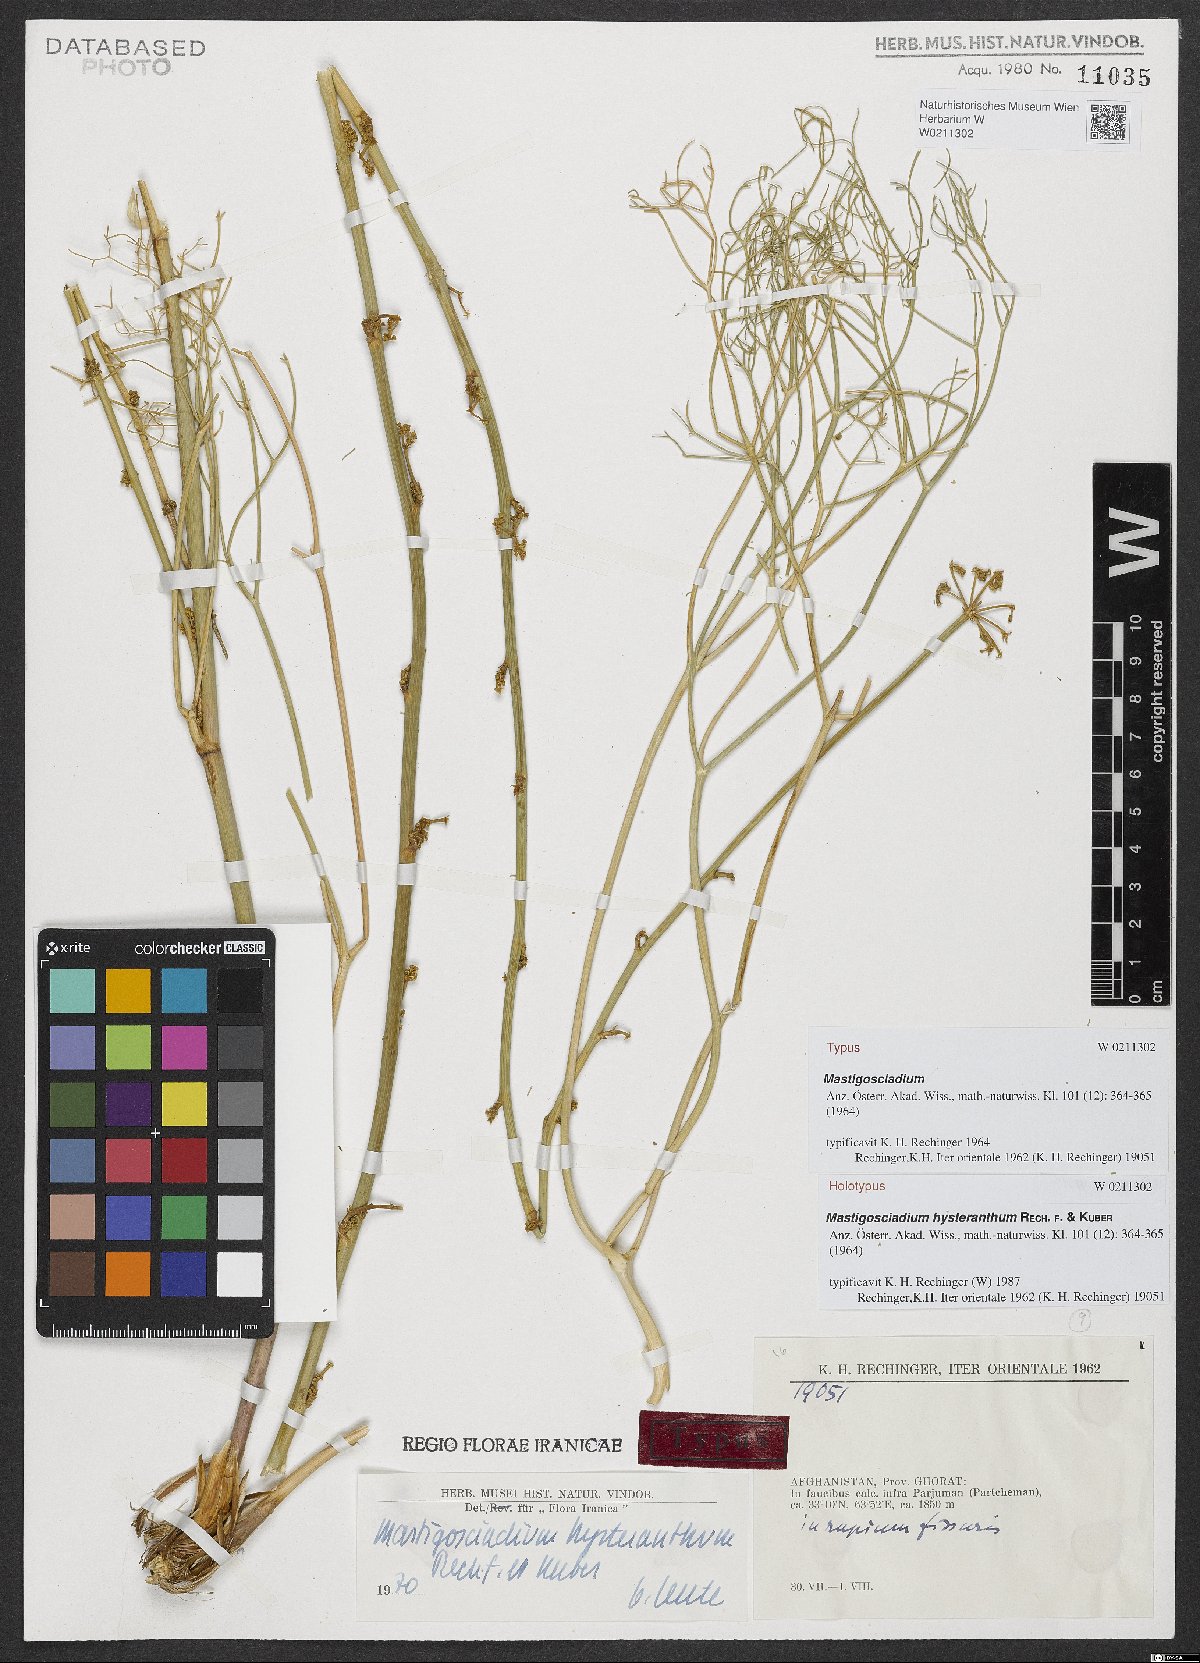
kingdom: Plantae
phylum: Tracheophyta
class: Magnoliopsida
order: Apiales
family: Apiaceae
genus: Mastigosciadium
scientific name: Mastigosciadium hysteranthum
